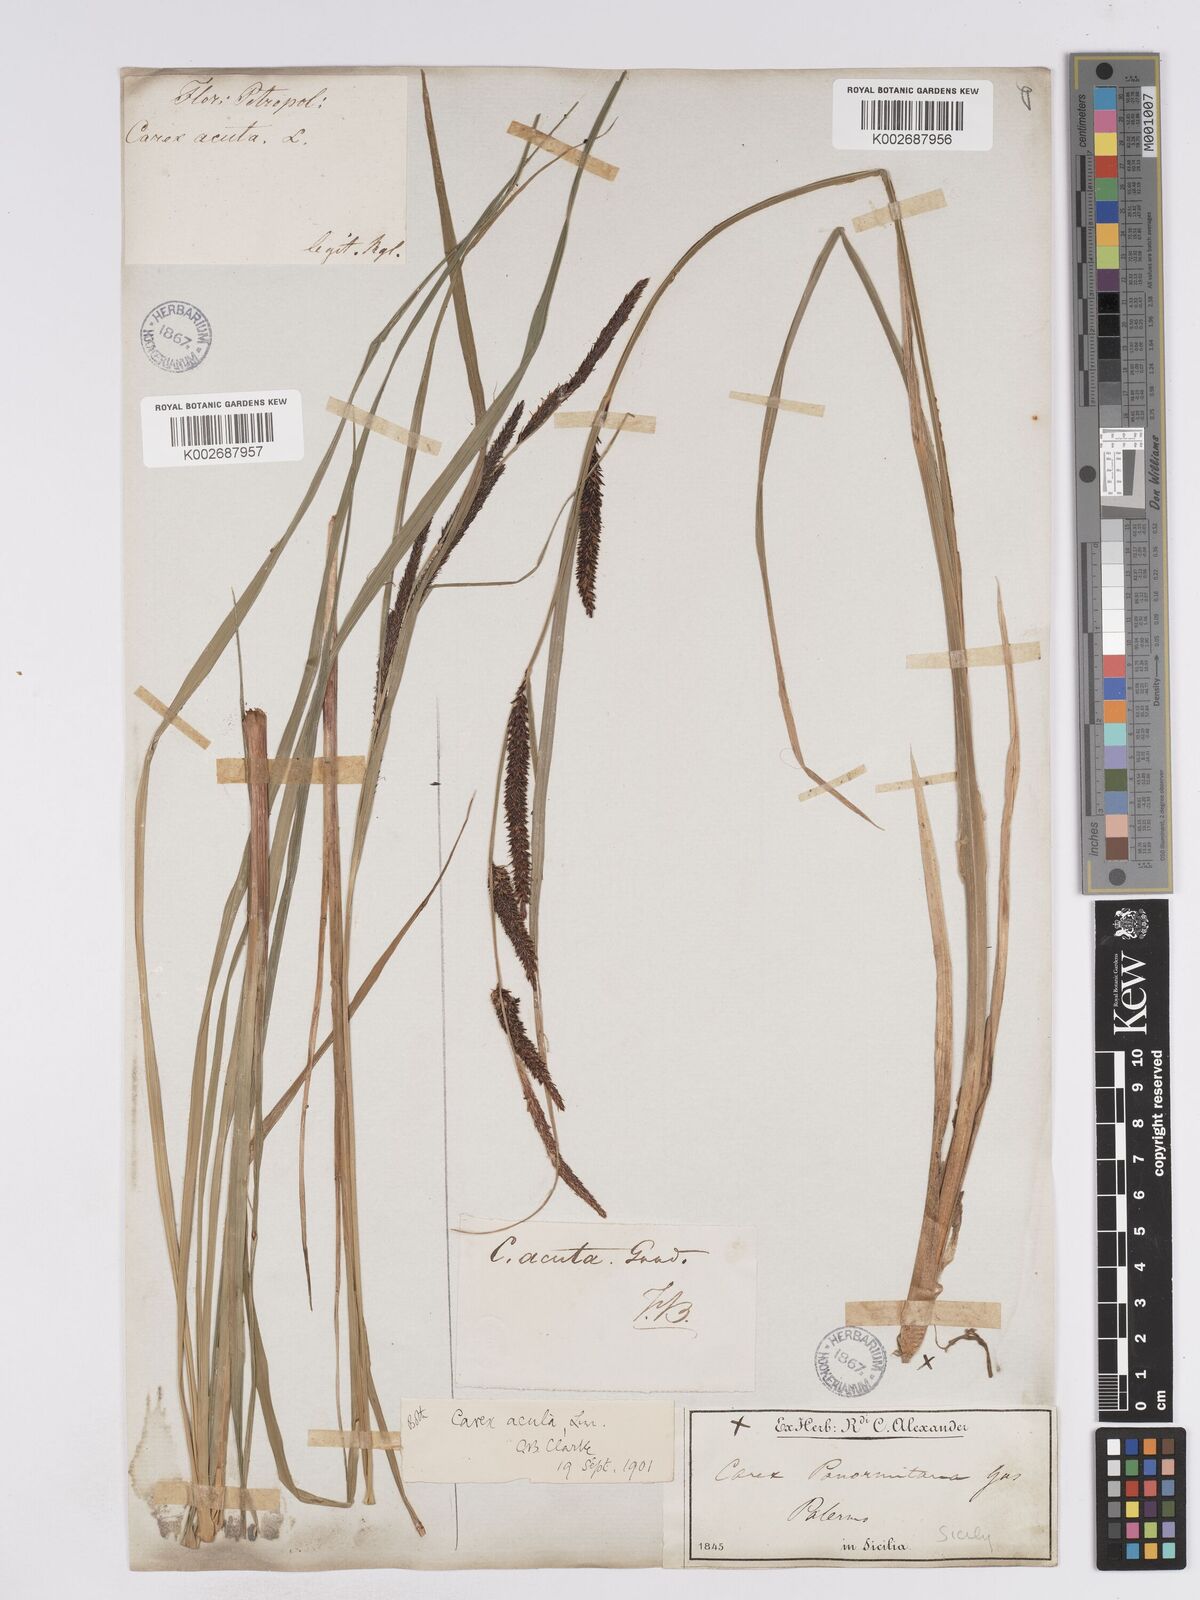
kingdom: Plantae
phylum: Tracheophyta
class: Liliopsida
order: Poales
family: Cyperaceae
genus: Carex
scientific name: Carex acuta
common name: Slender tufted-sedge
